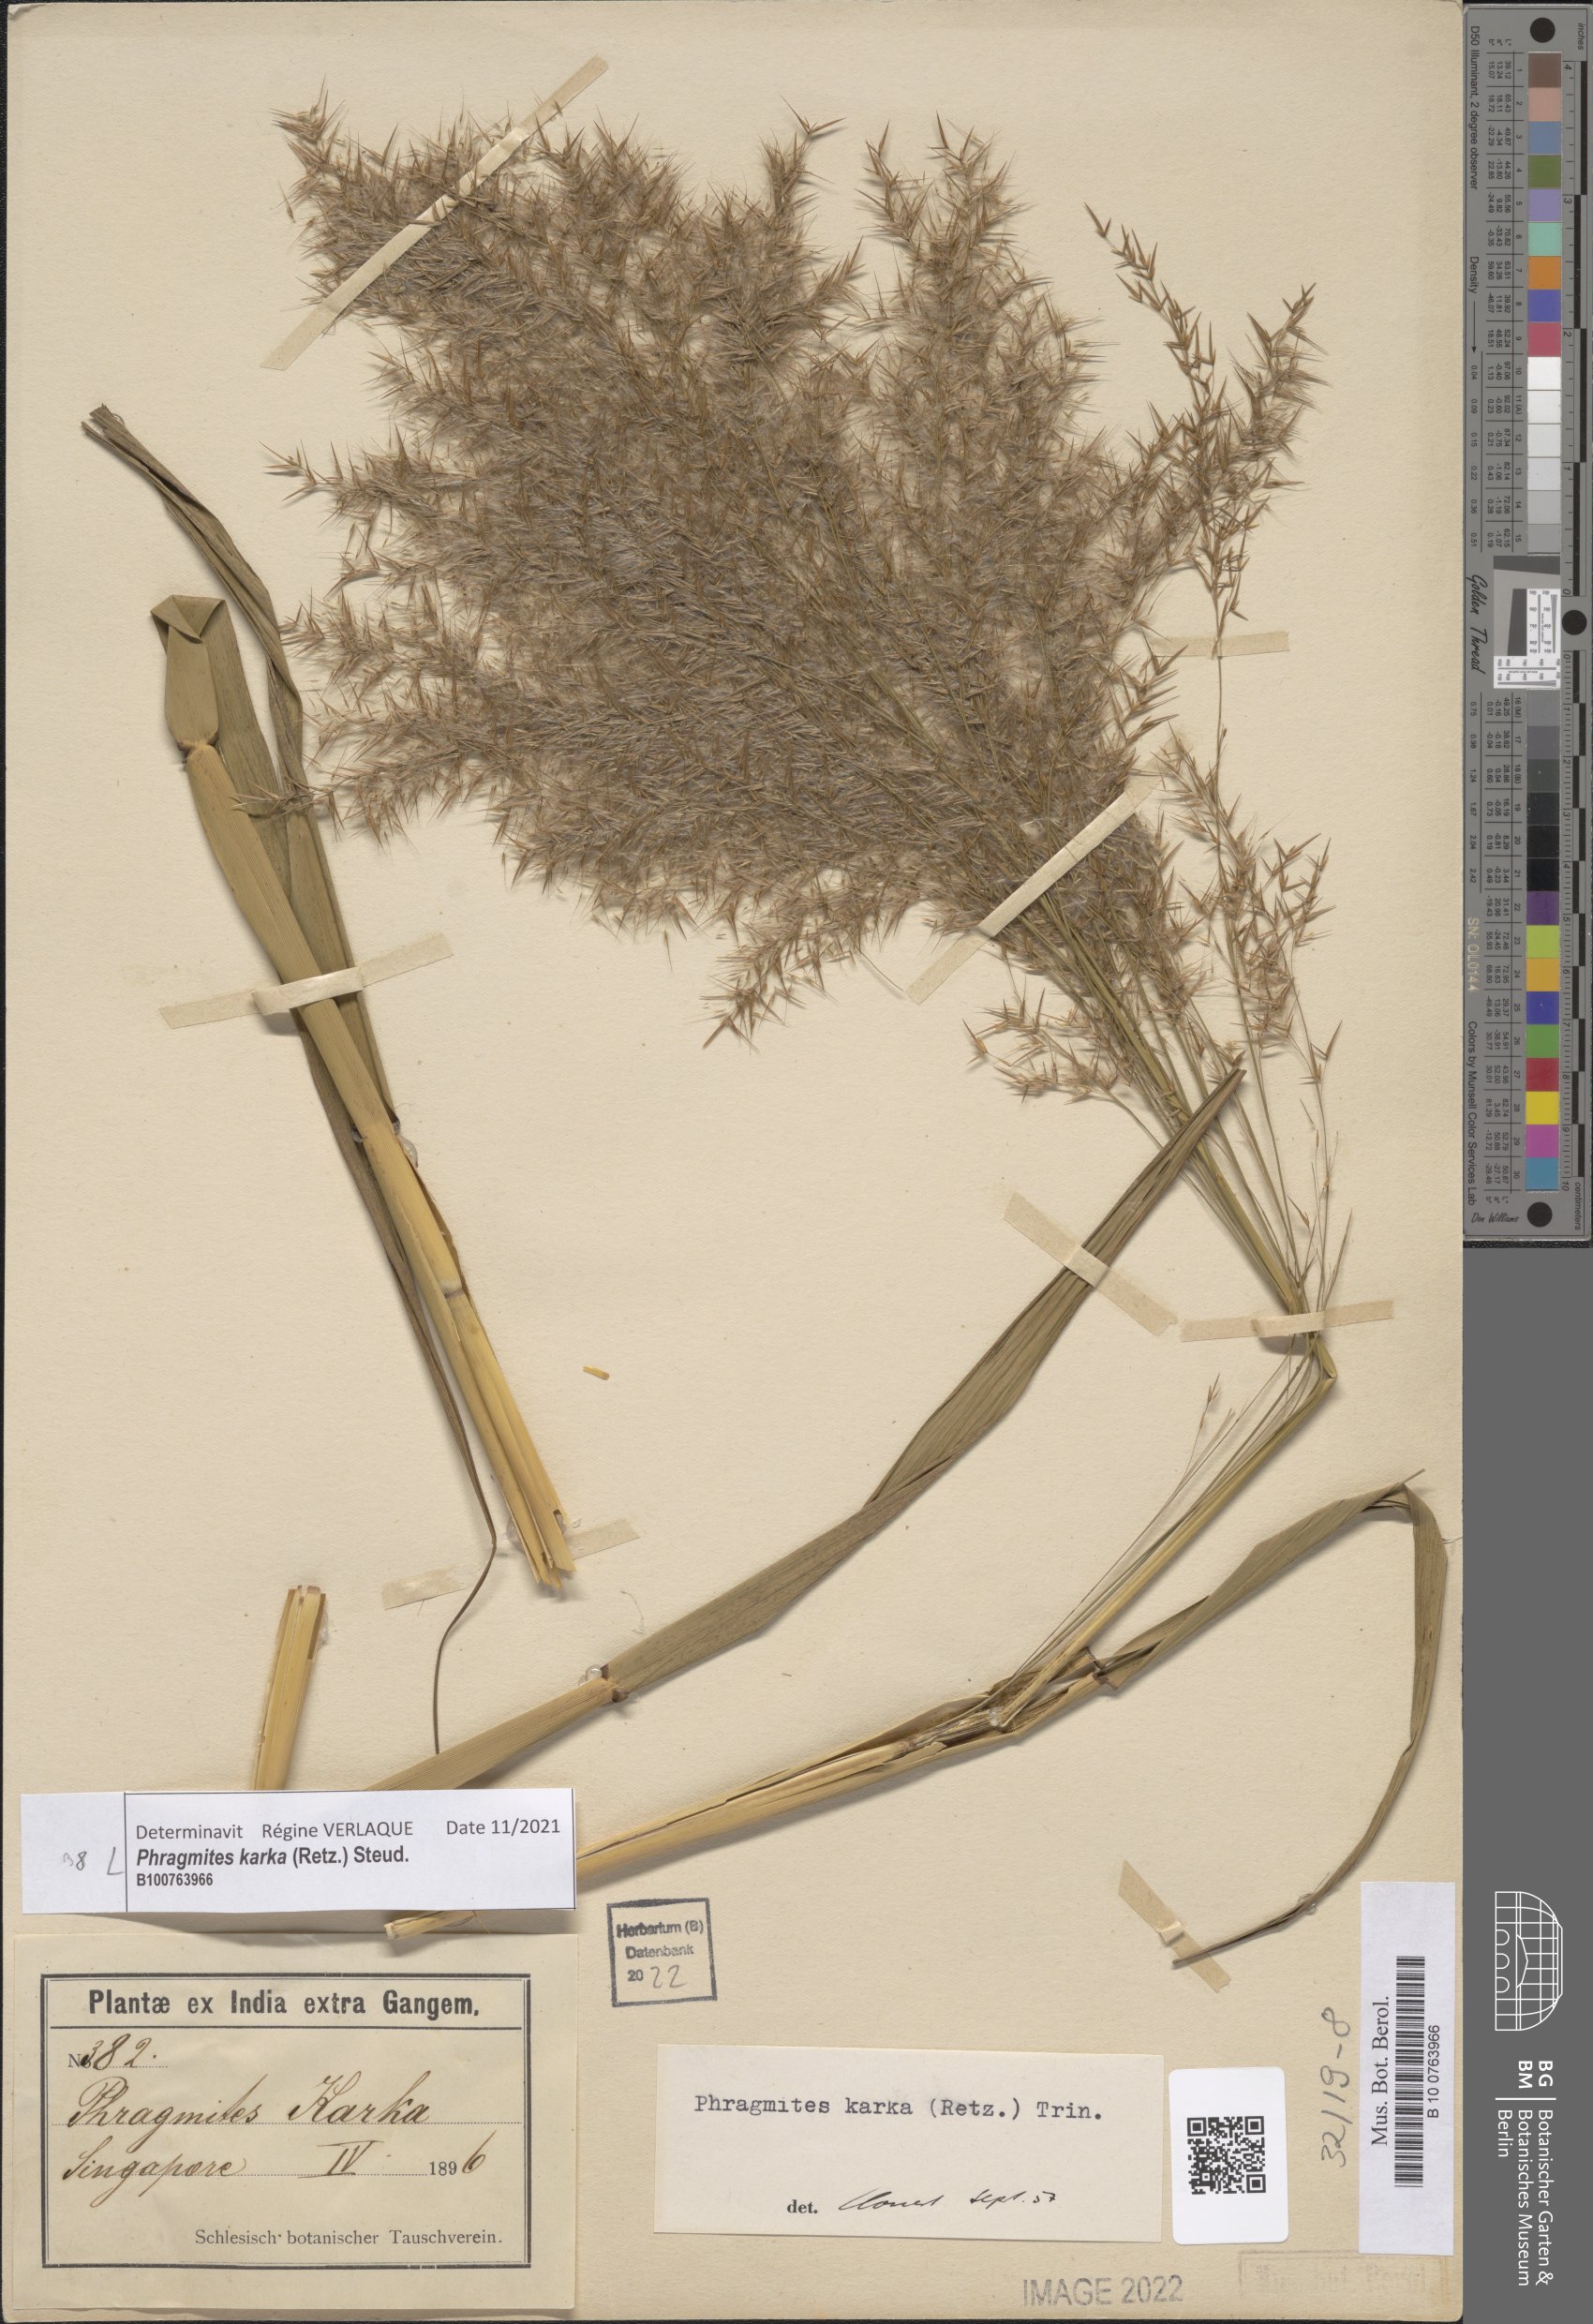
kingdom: Plantae
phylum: Tracheophyta
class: Liliopsida
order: Poales
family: Poaceae
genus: Phragmites
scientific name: Phragmites karka
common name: Tropical reed
